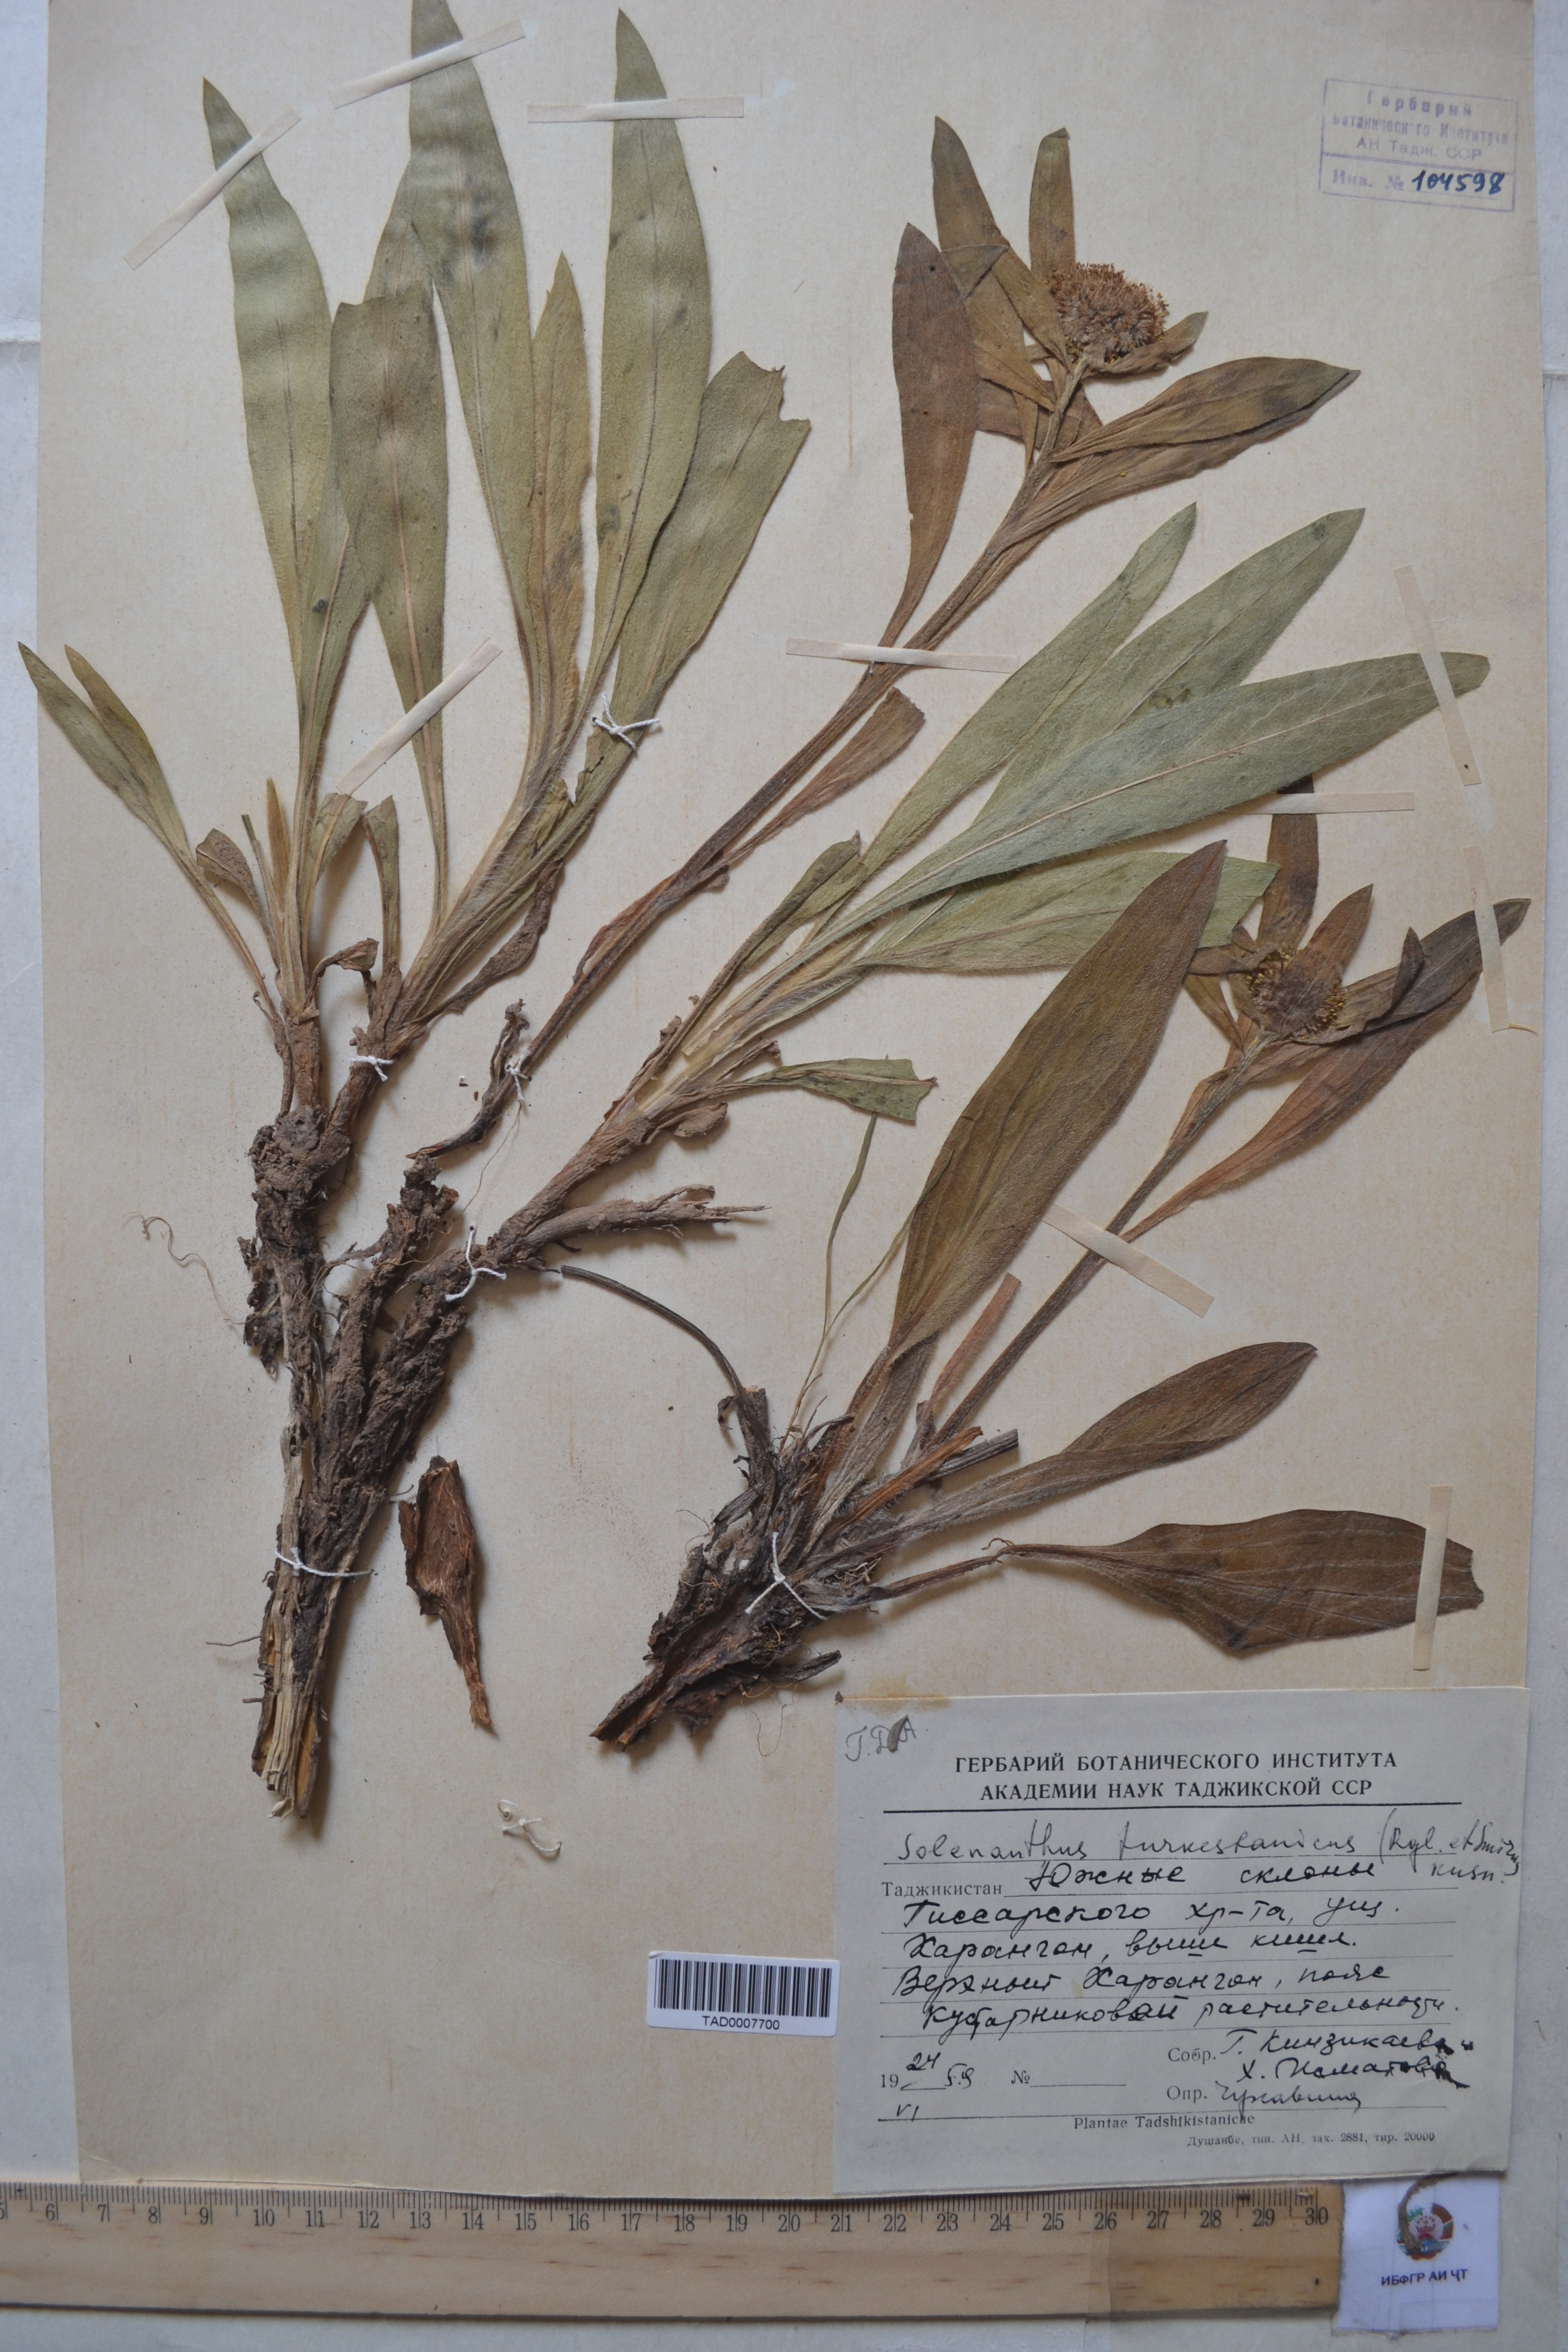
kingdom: Plantae
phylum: Tracheophyta
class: Magnoliopsida
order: Boraginales
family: Boraginaceae
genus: Solenanthus
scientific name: Solenanthus turkestanicus
